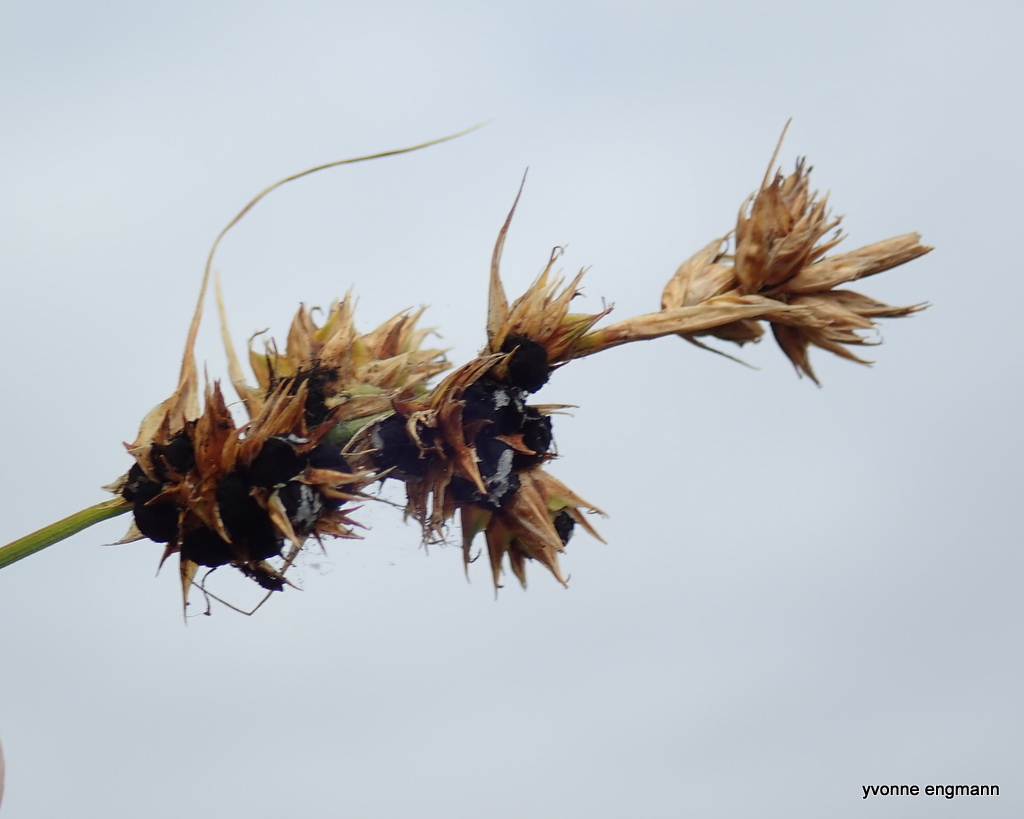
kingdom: Fungi
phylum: Basidiomycota
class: Ustilaginomycetes
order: Ustilaginales
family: Anthracoideaceae
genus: Anthracoidea
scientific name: Anthracoidea arenariae
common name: sandstar-brand
